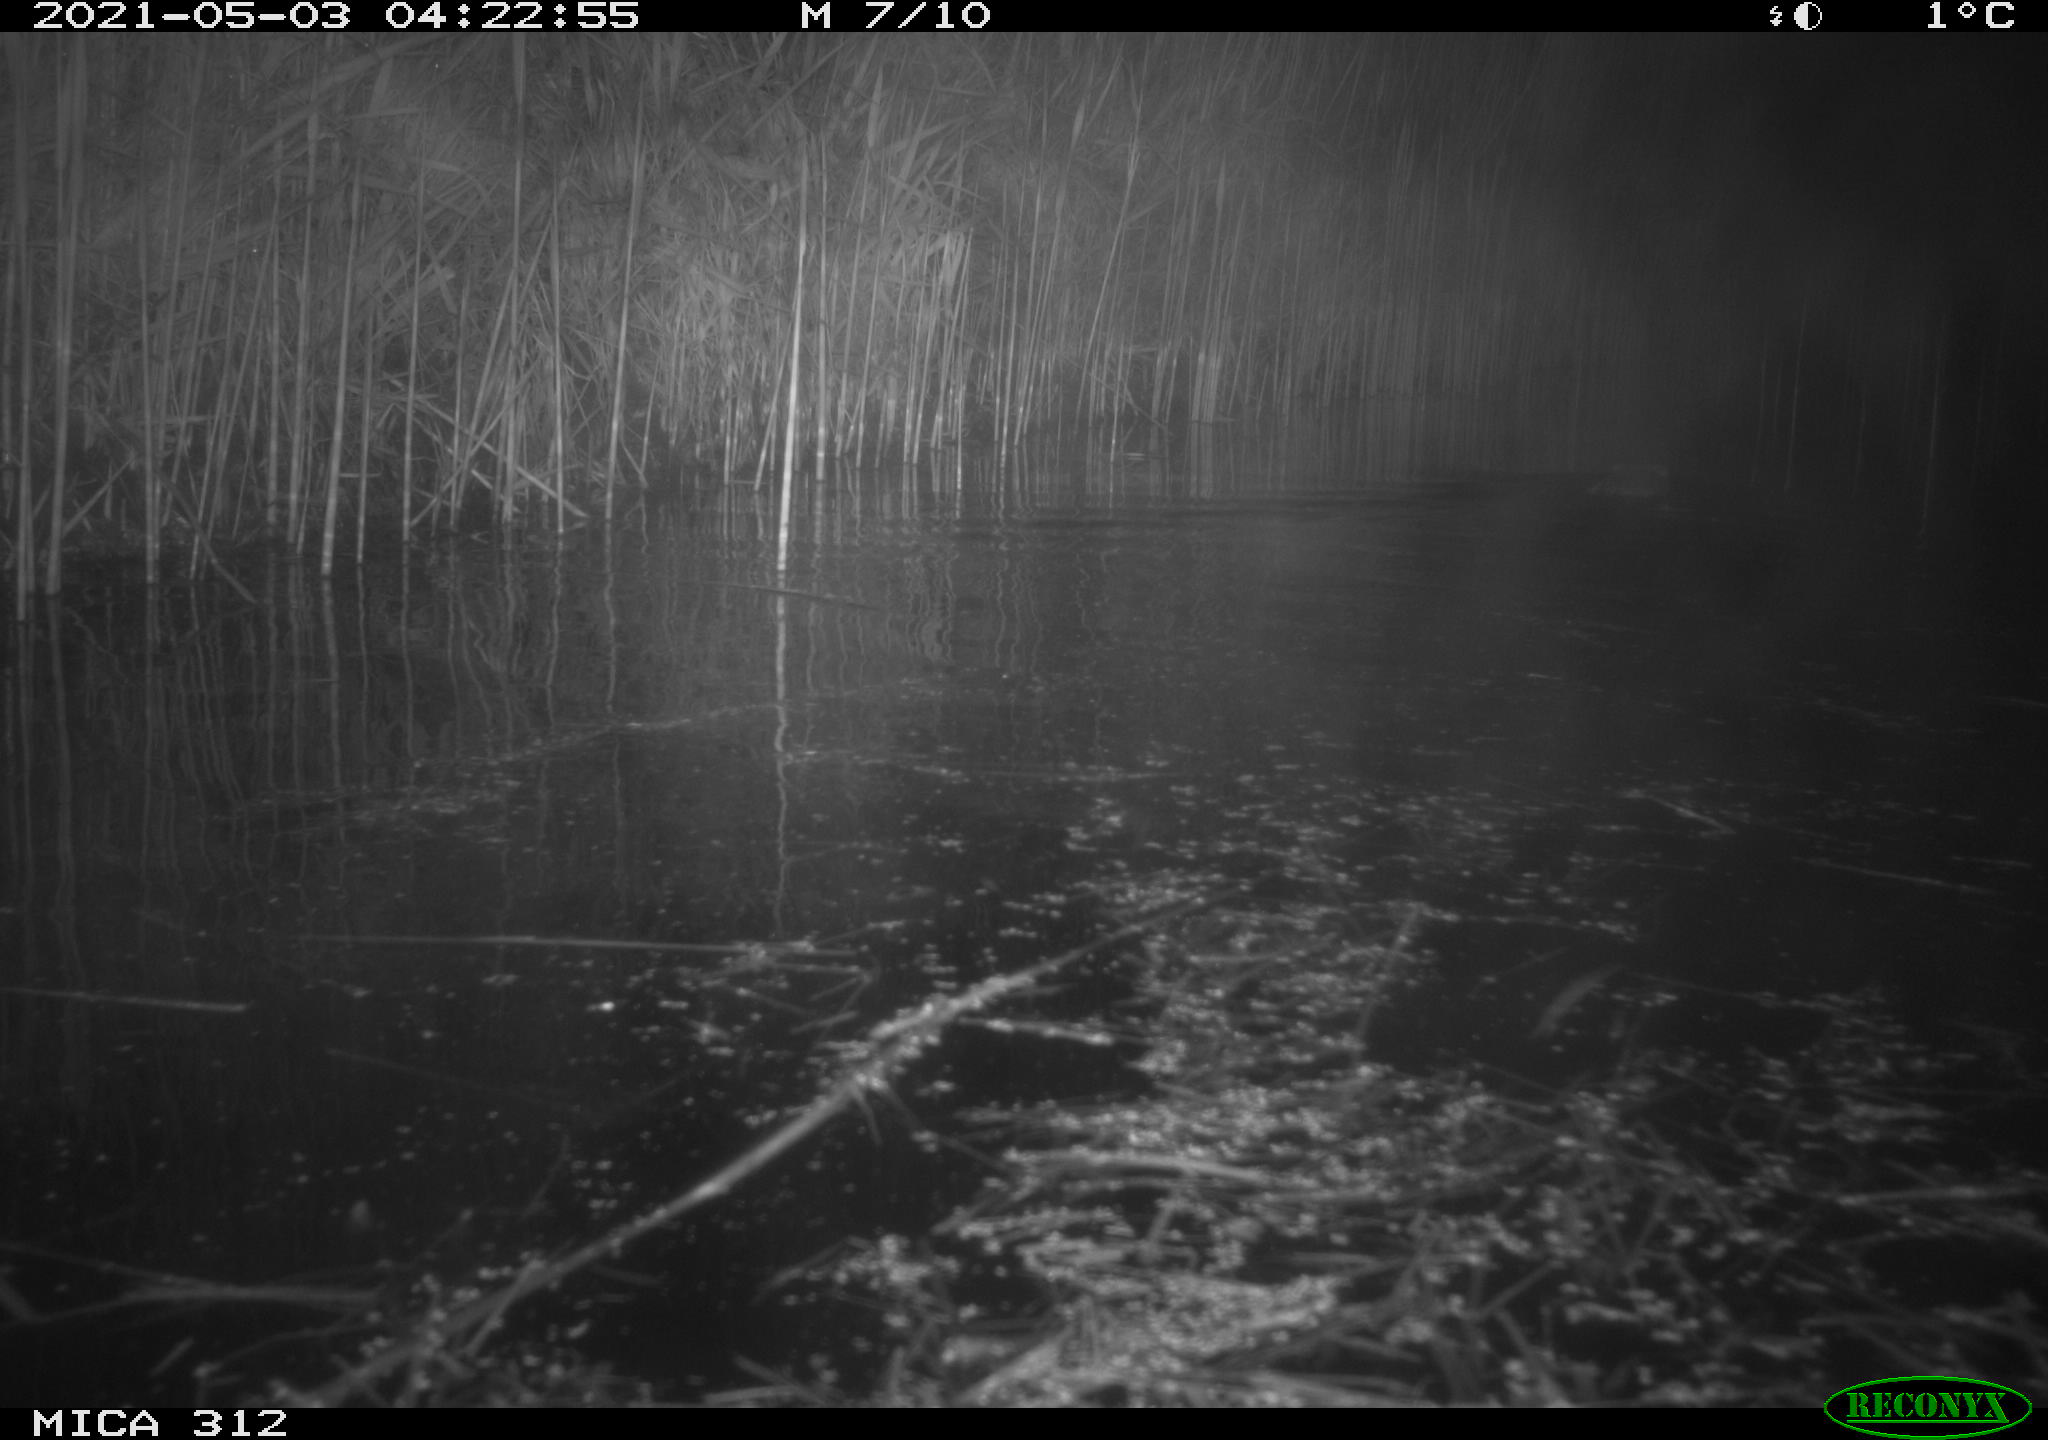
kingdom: Animalia
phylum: Chordata
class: Mammalia
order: Rodentia
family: Cricetidae
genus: Ondatra
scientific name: Ondatra zibethicus
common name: Muskrat
